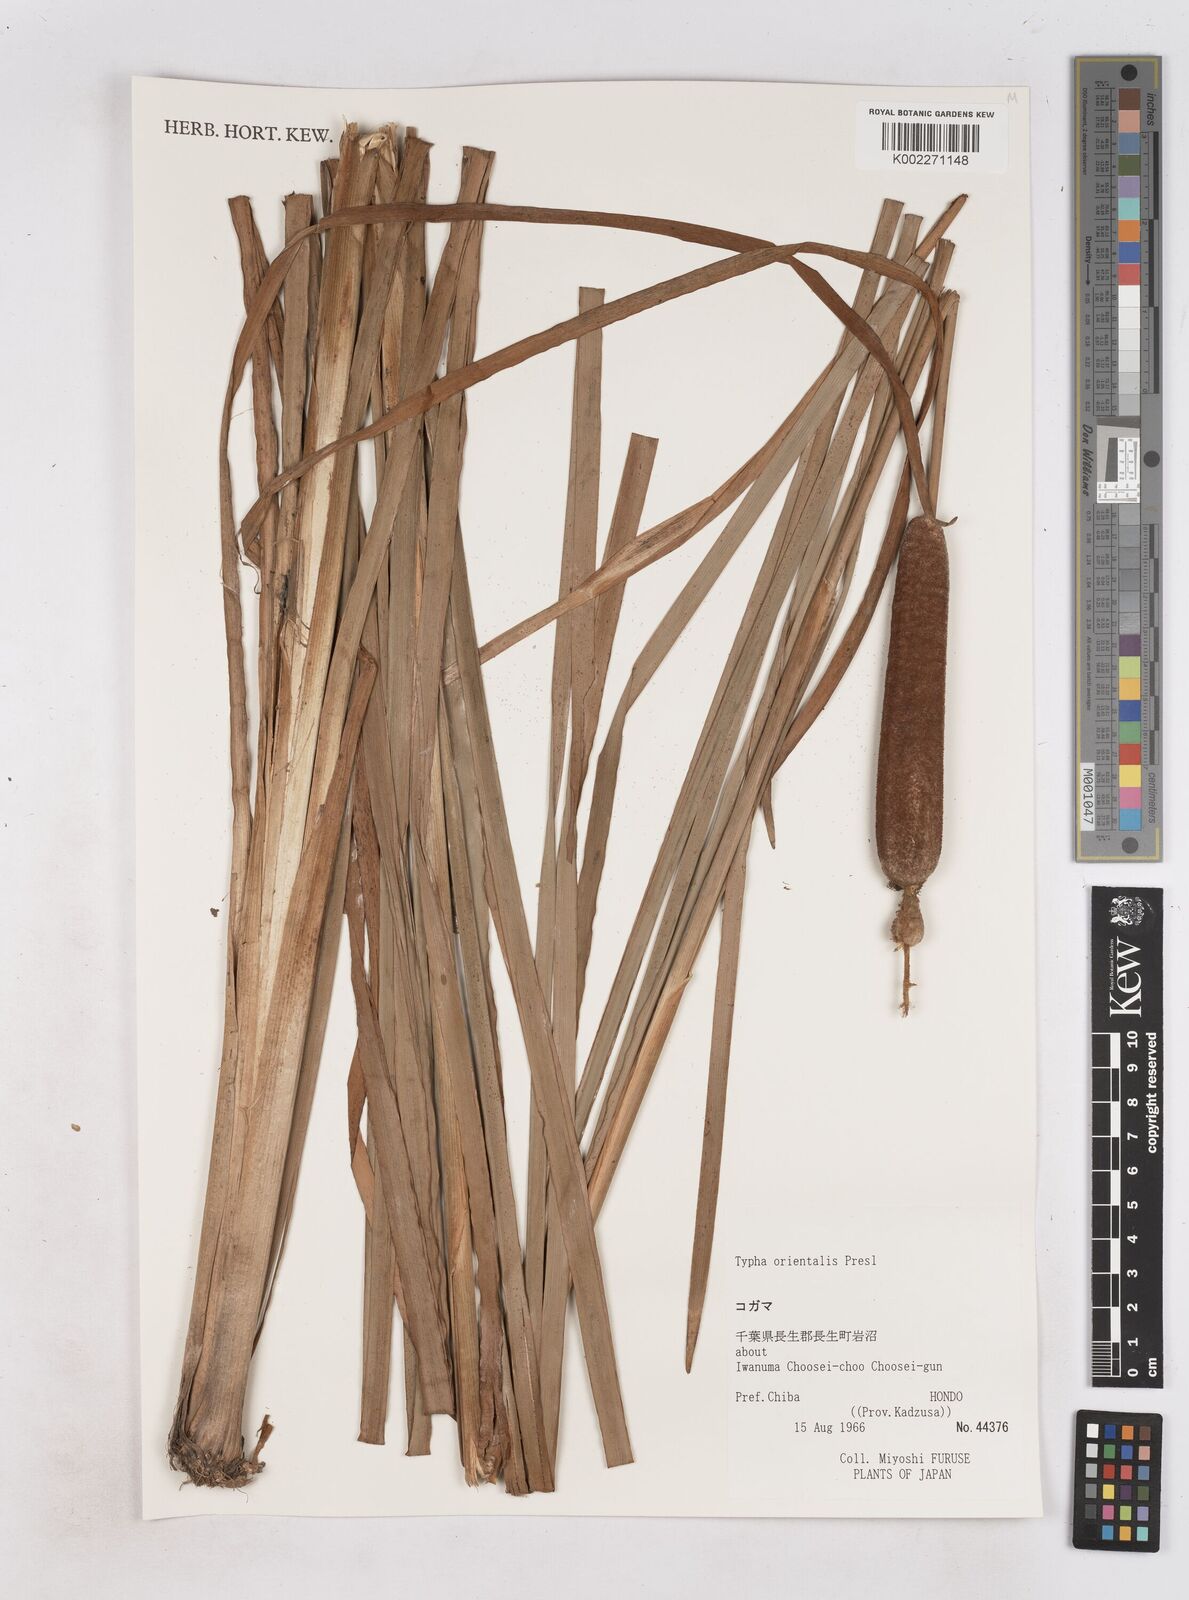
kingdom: Plantae
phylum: Tracheophyta
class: Liliopsida
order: Poales
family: Typhaceae
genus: Typha
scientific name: Typha
